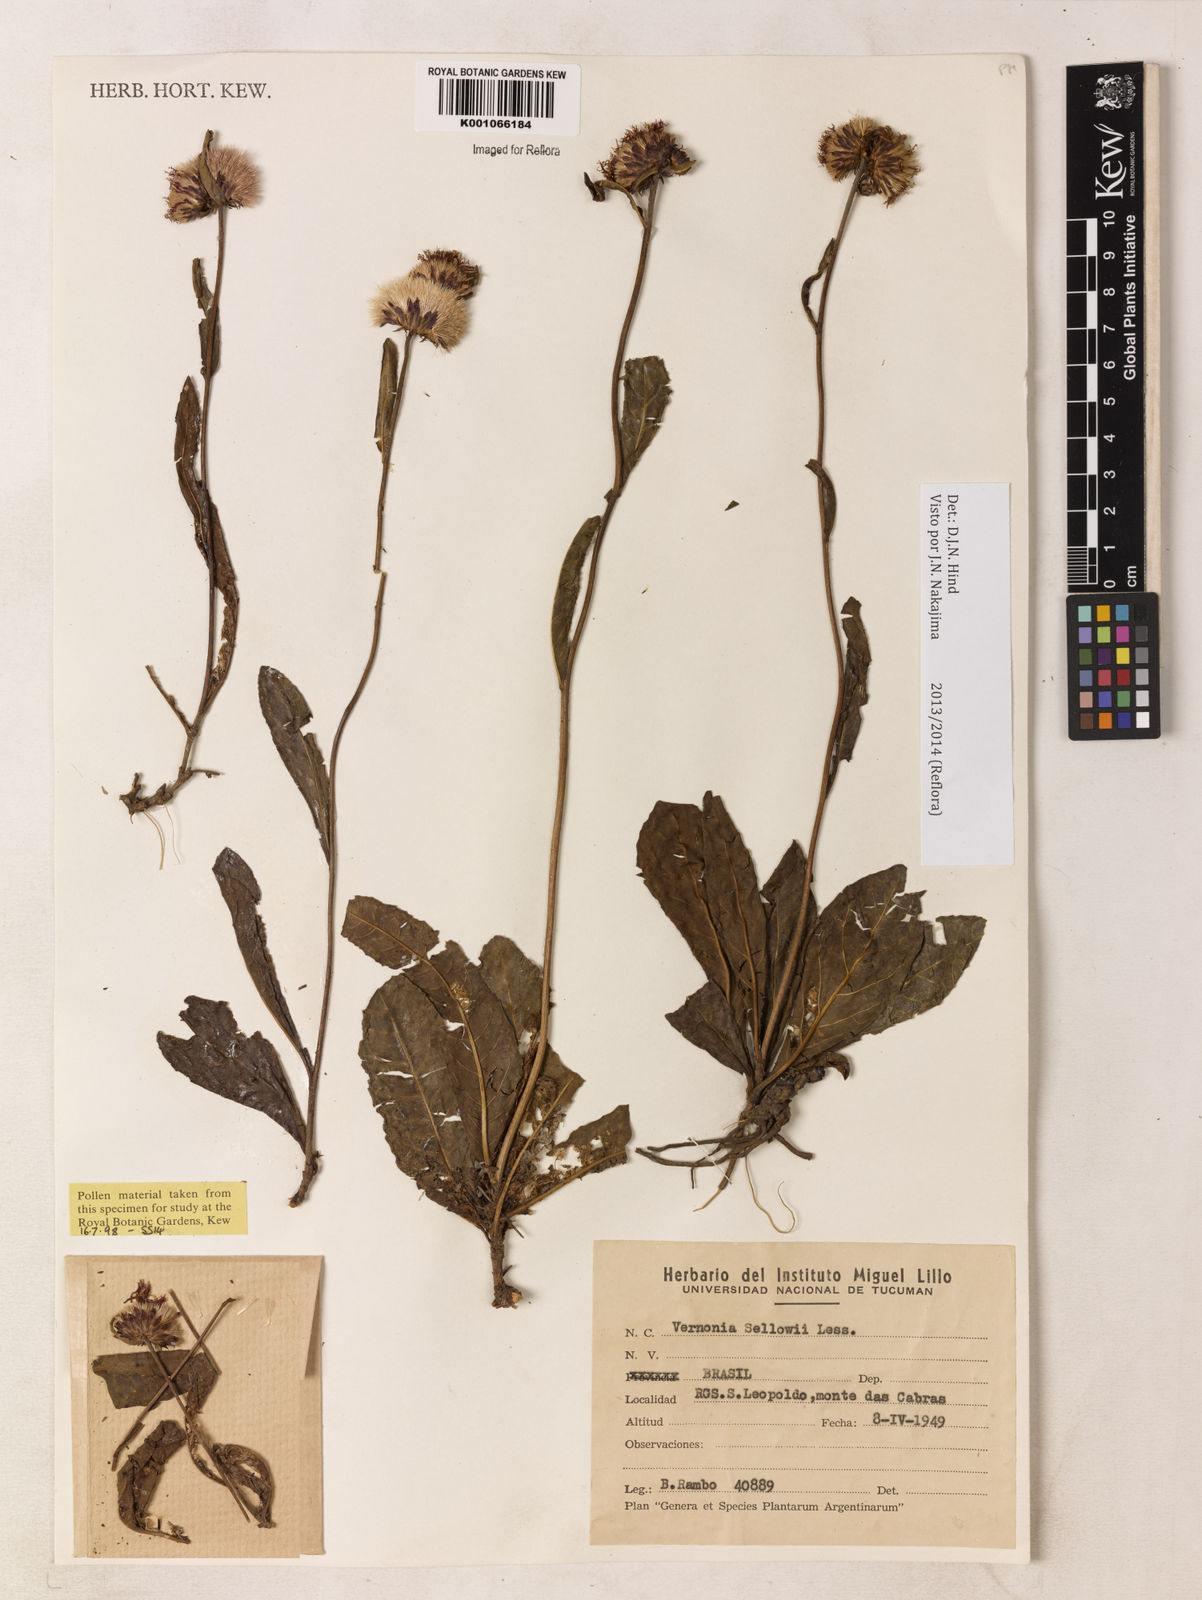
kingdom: Plantae
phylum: Tracheophyta
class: Magnoliopsida
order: Asterales
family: Asteraceae
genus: Lessingianthus
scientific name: Lessingianthus sellowii
